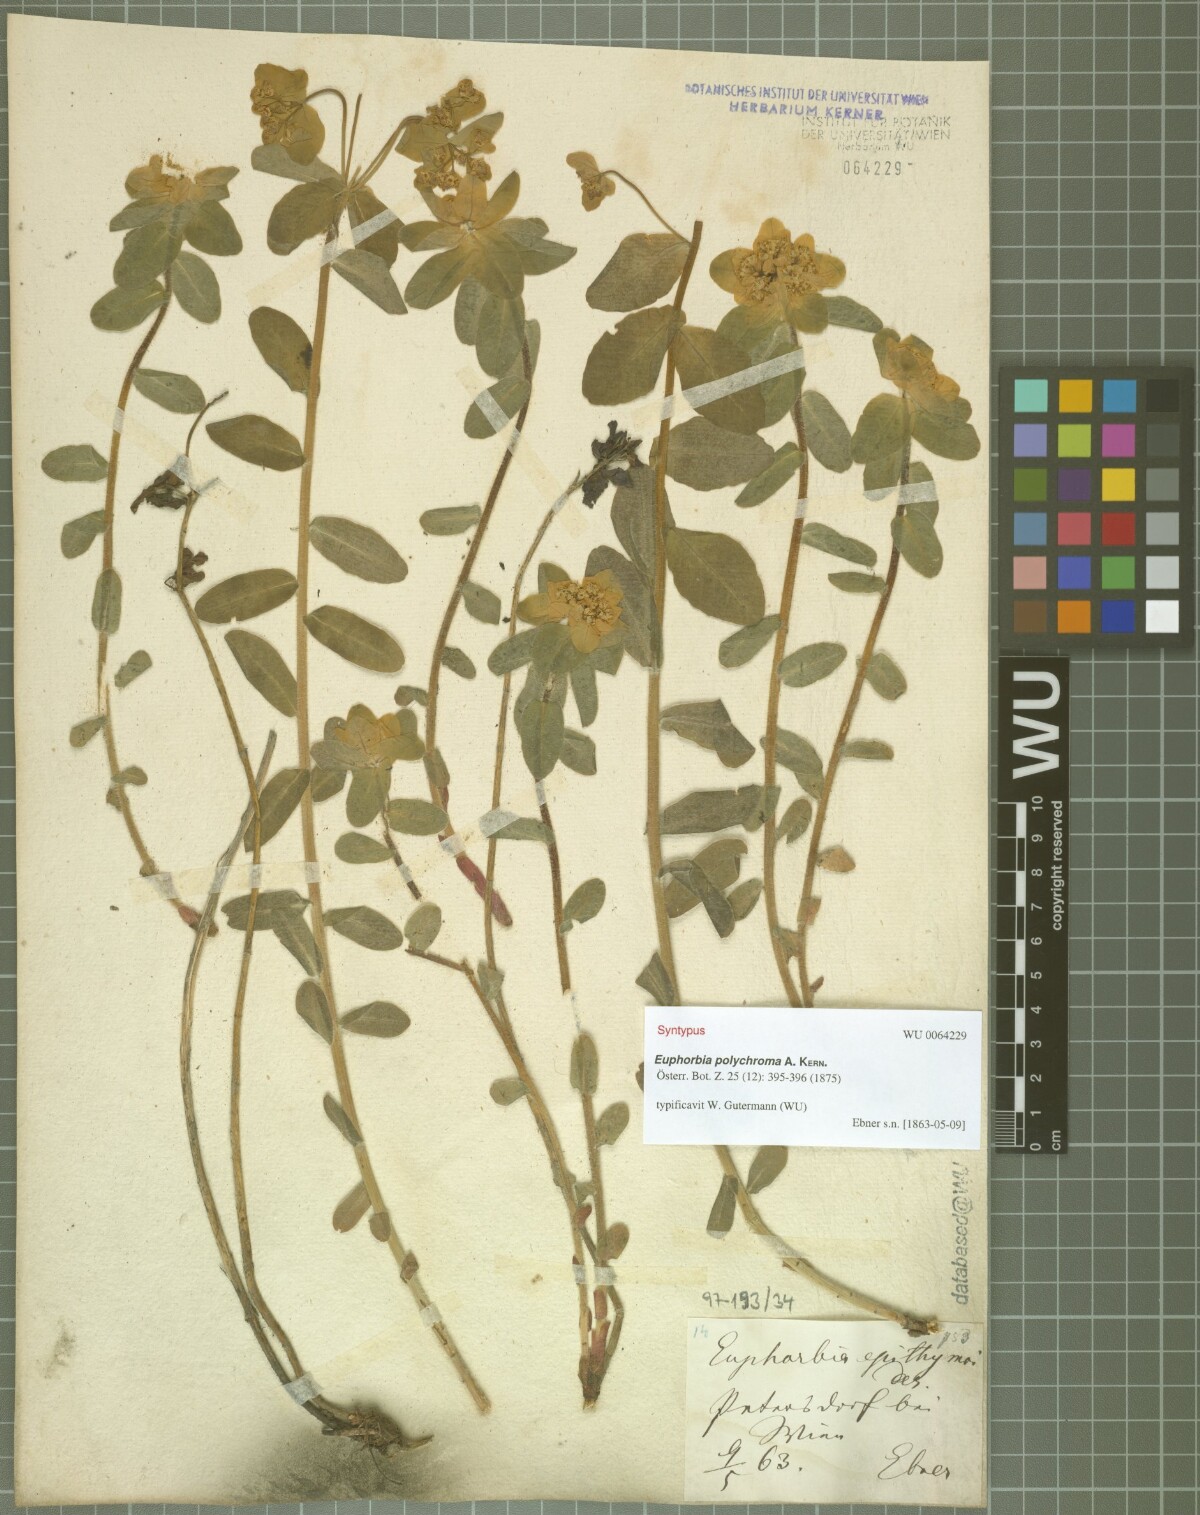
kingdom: Plantae
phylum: Tracheophyta
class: Magnoliopsida
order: Malpighiales
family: Euphorbiaceae
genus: Euphorbia
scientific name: Euphorbia epithymoides
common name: Cushion spurge
